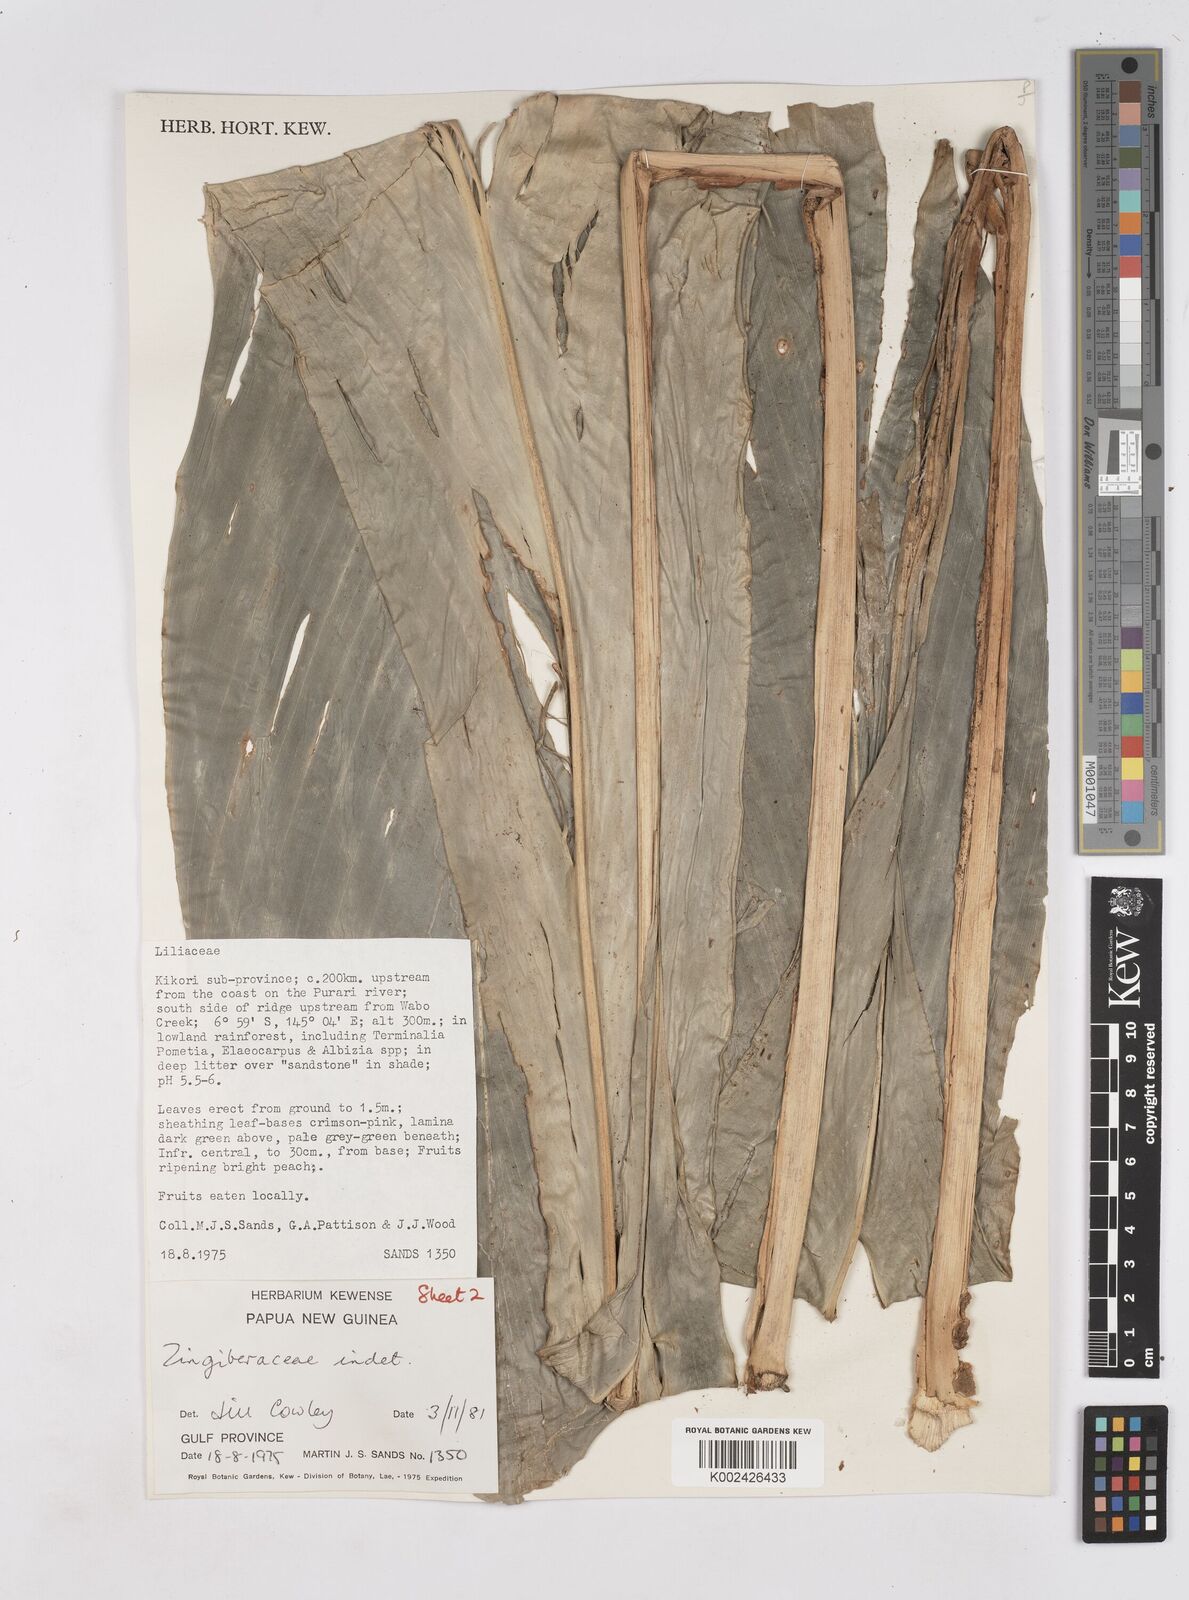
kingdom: Plantae
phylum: Tracheophyta
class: Liliopsida
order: Zingiberales
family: Zingiberaceae
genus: Riedelia
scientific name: Riedelia corallina
